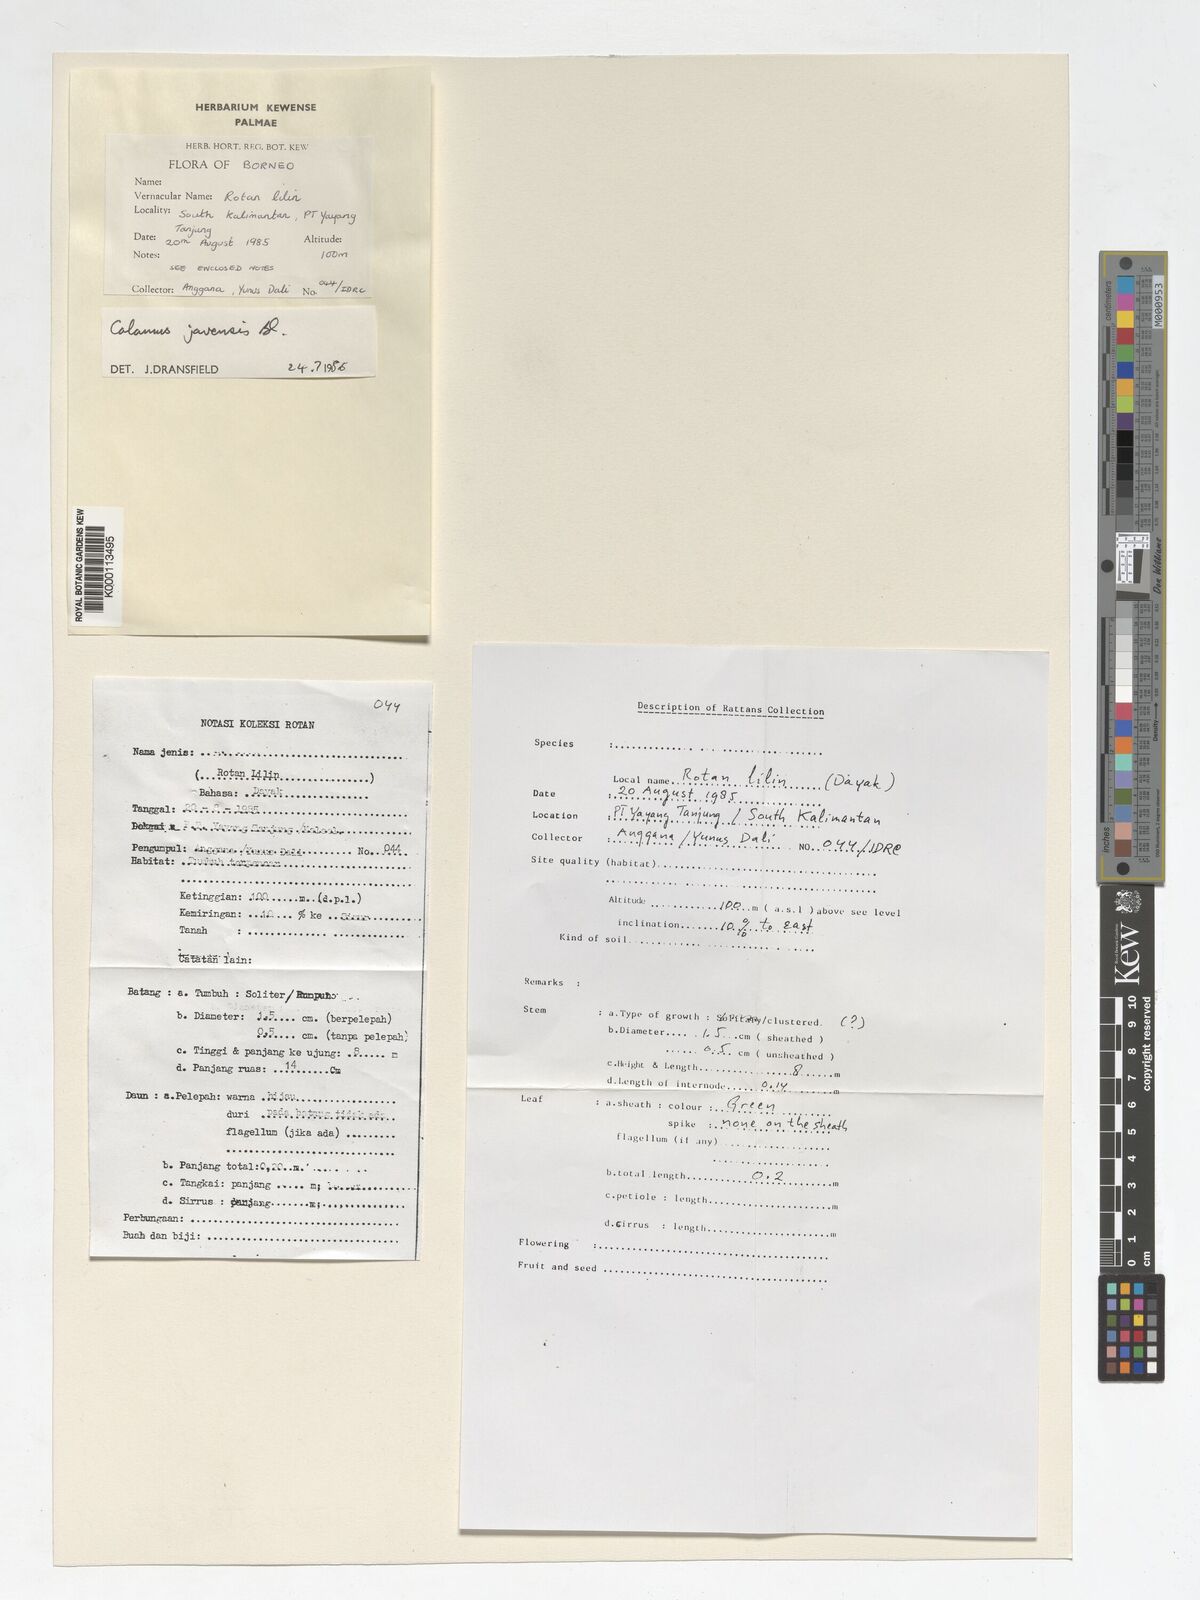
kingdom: Plantae
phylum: Tracheophyta
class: Liliopsida
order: Arecales
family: Arecaceae
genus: Calamus
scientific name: Calamus javensis
